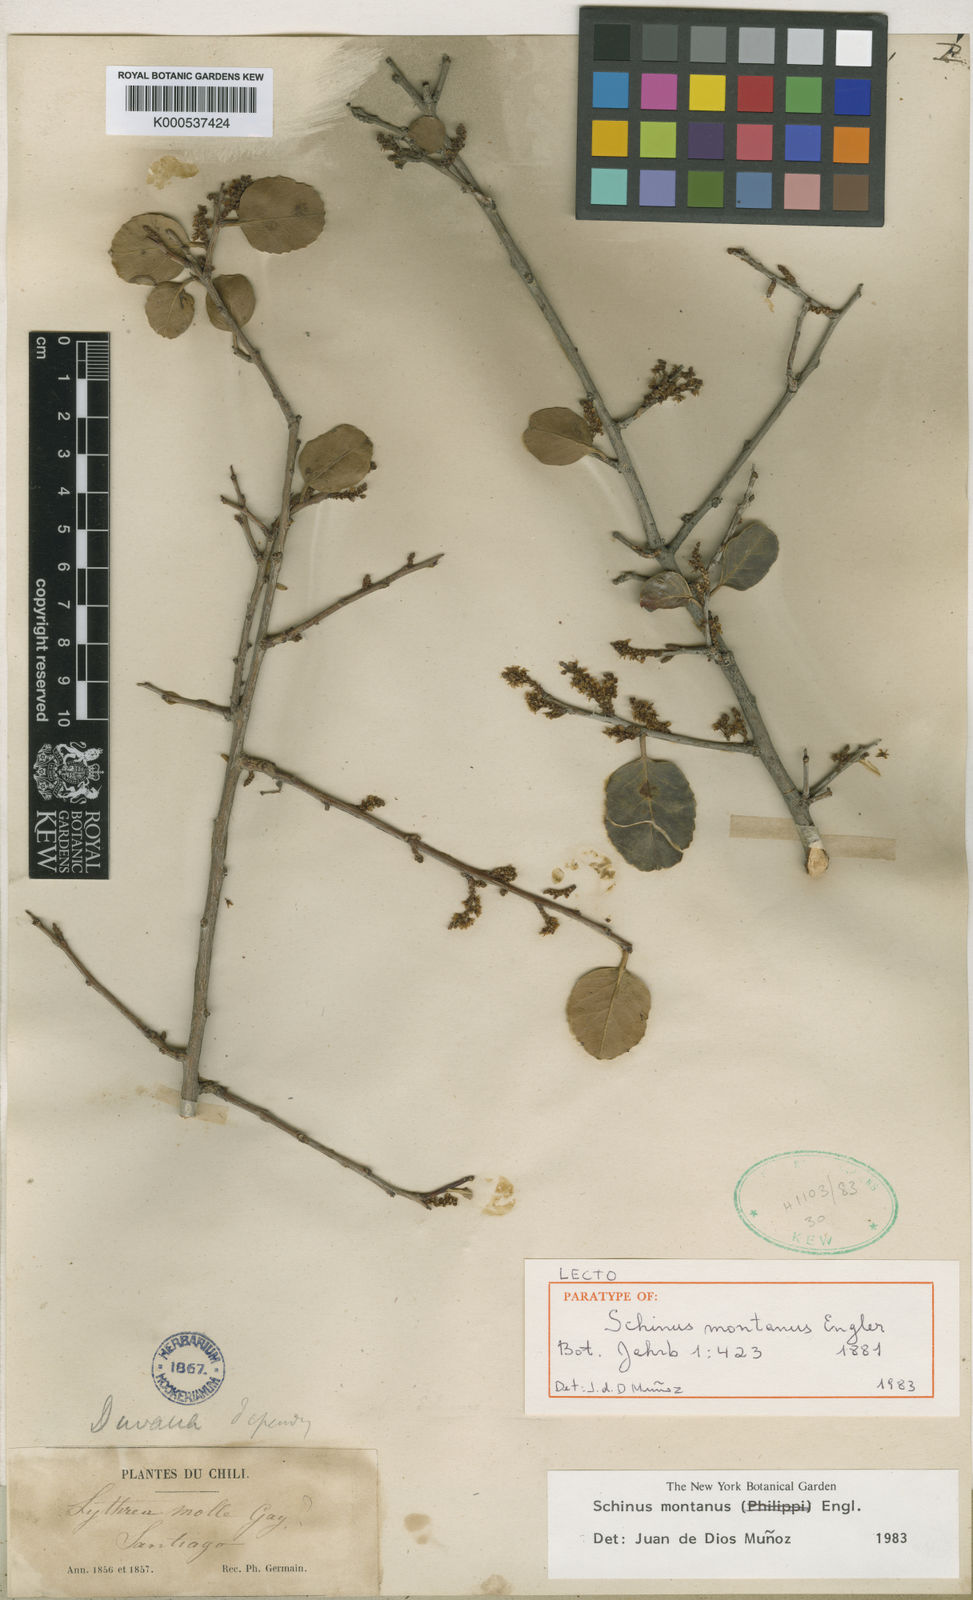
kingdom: Plantae
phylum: Tracheophyta
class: Magnoliopsida
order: Sapindales
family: Anacardiaceae
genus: Schinus
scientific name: Schinus
